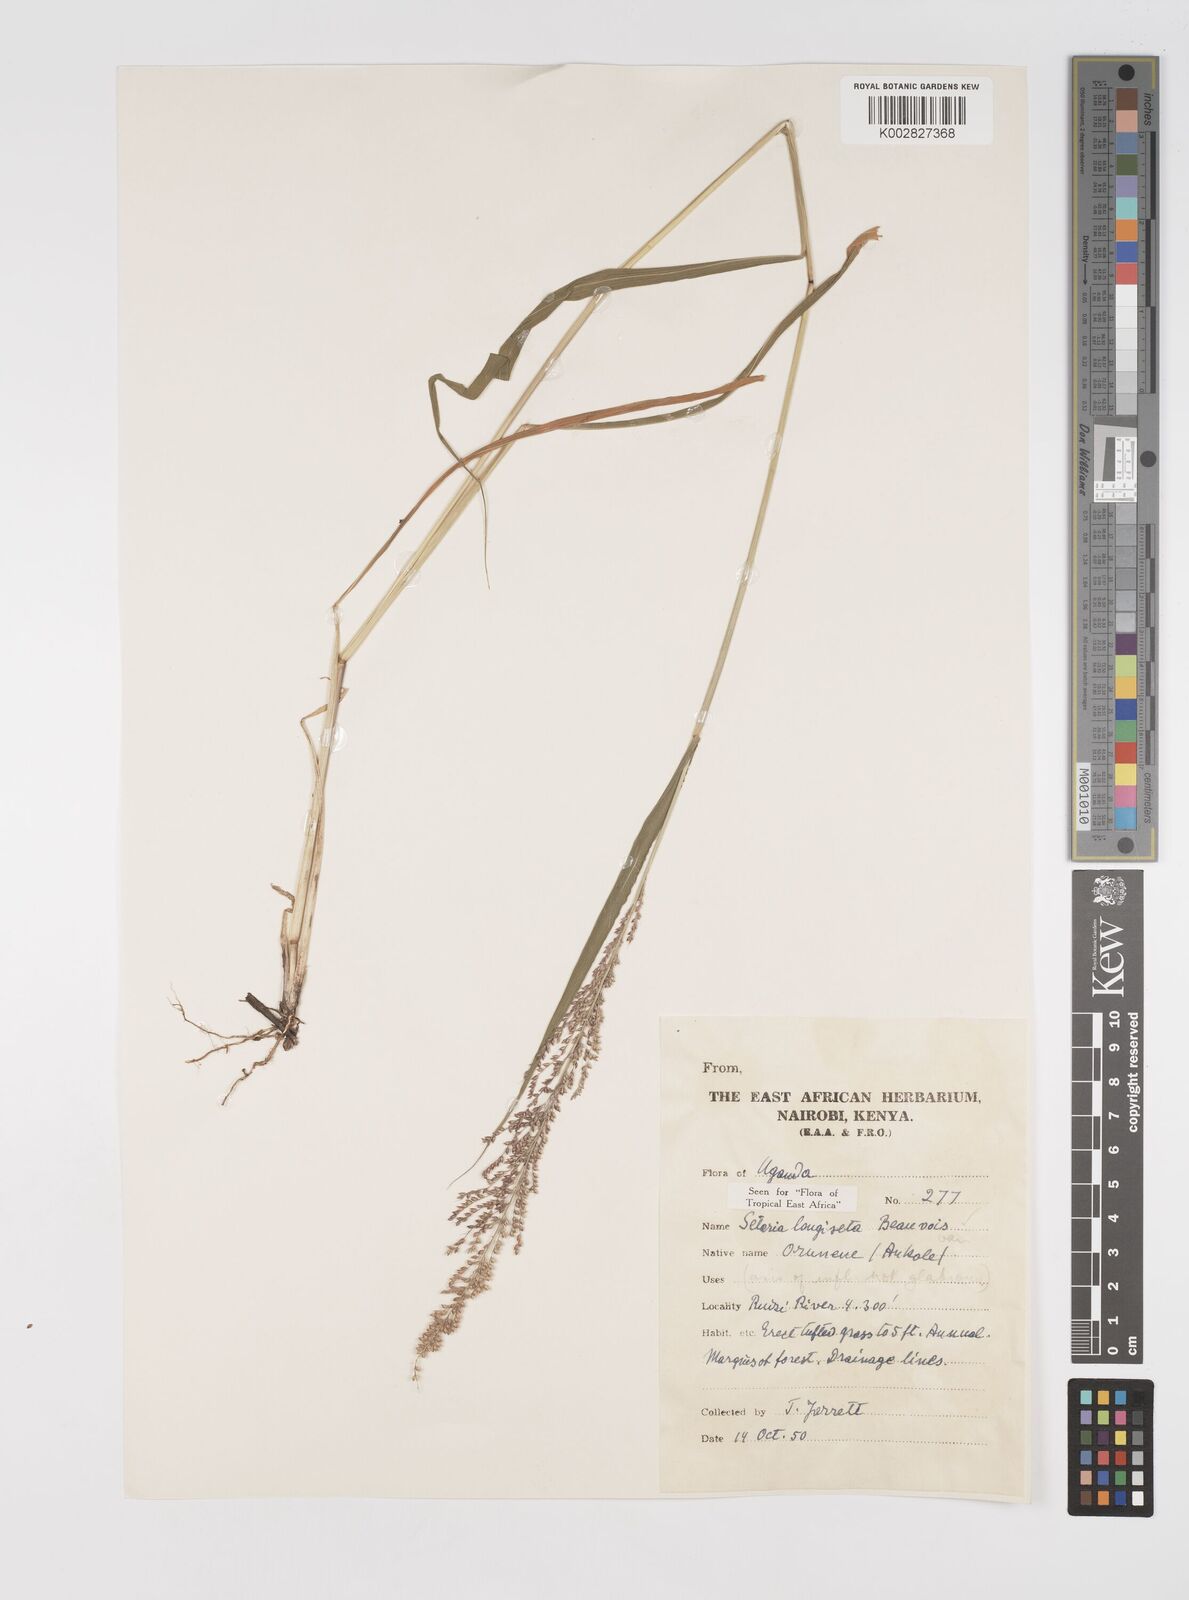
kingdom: Plantae
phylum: Tracheophyta
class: Liliopsida
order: Poales
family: Poaceae
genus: Setaria
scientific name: Setaria longiseta
